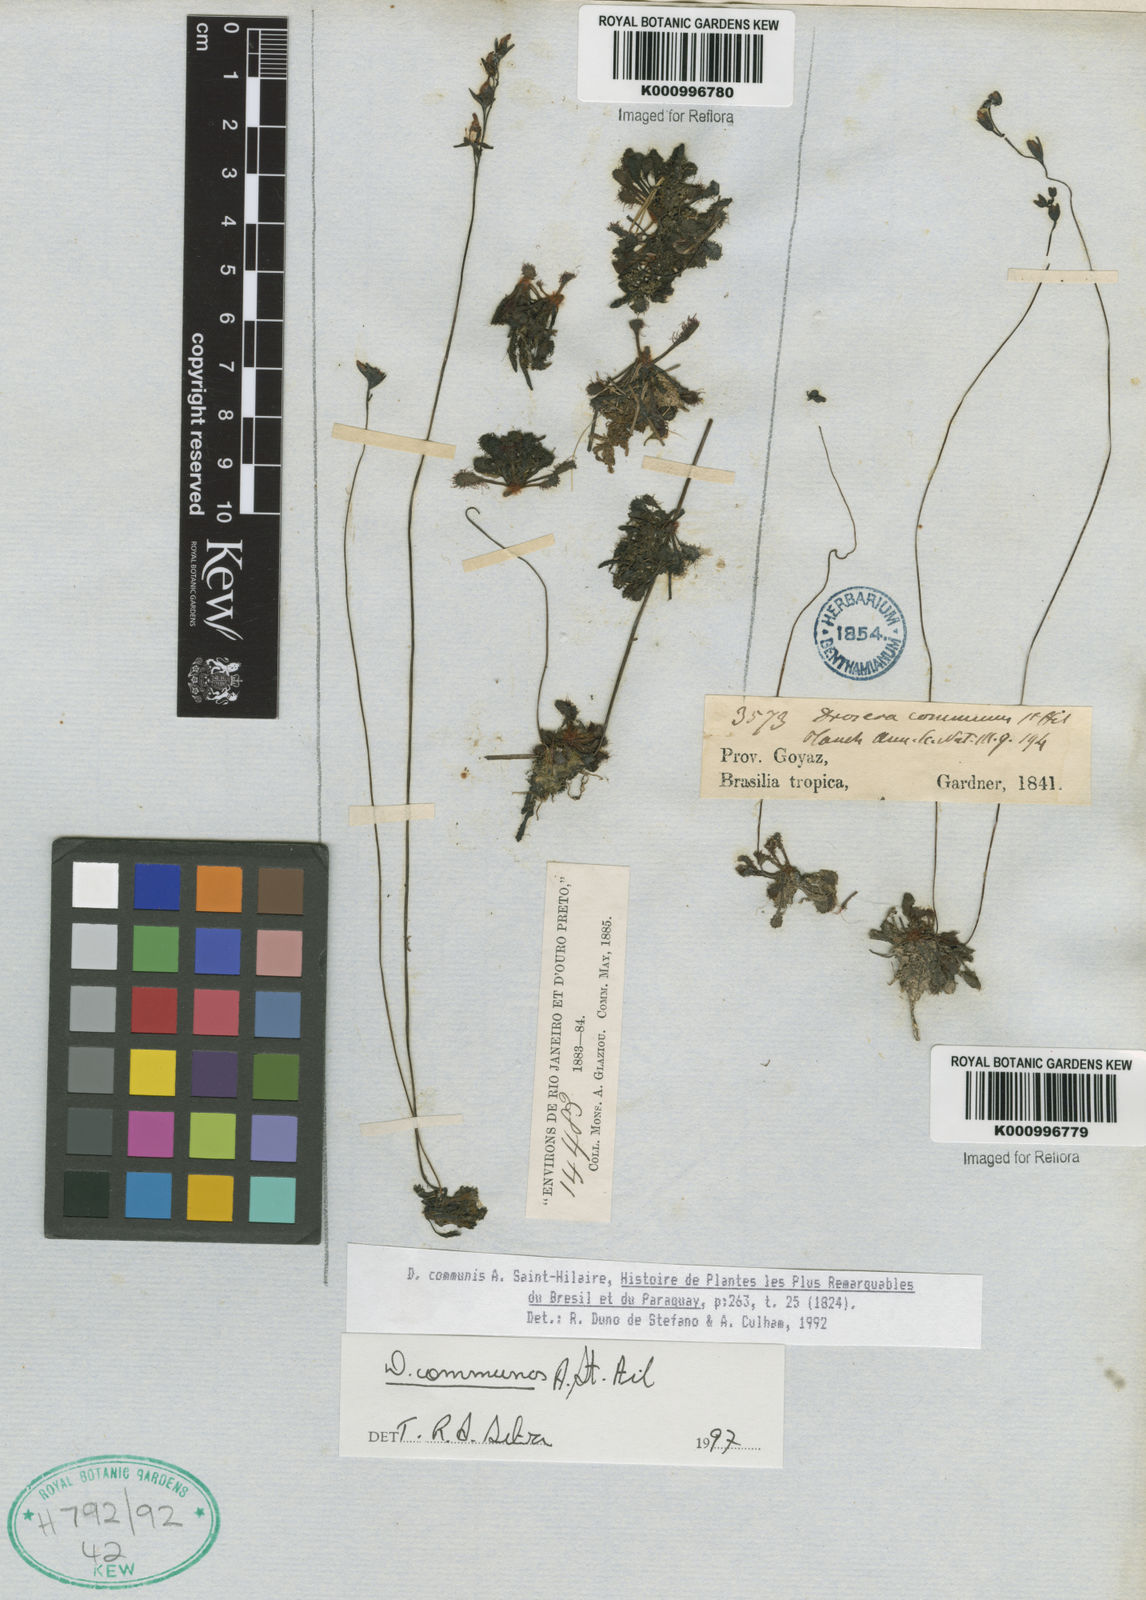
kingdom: Plantae
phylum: Tracheophyta
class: Magnoliopsida
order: Caryophyllales
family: Droseraceae
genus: Drosera
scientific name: Drosera communis
